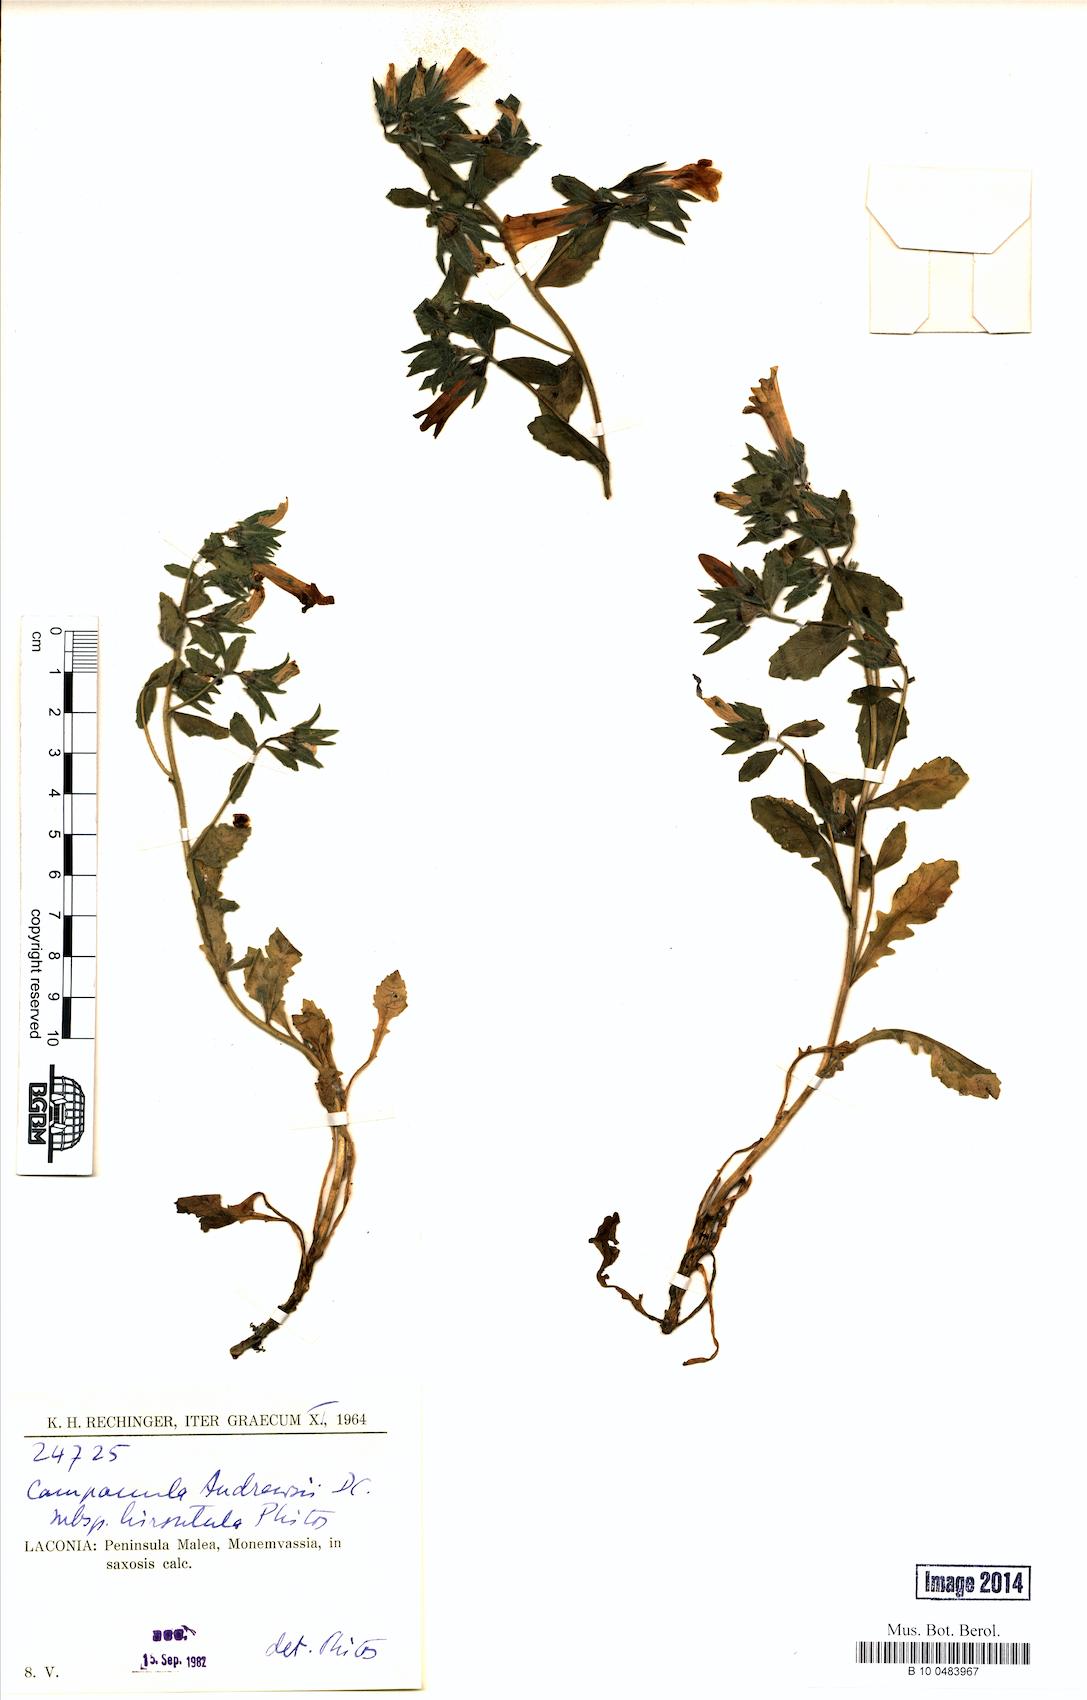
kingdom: Plantae
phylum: Tracheophyta
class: Magnoliopsida
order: Asterales
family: Campanulaceae
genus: Campanula
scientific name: Campanula andrewsii
